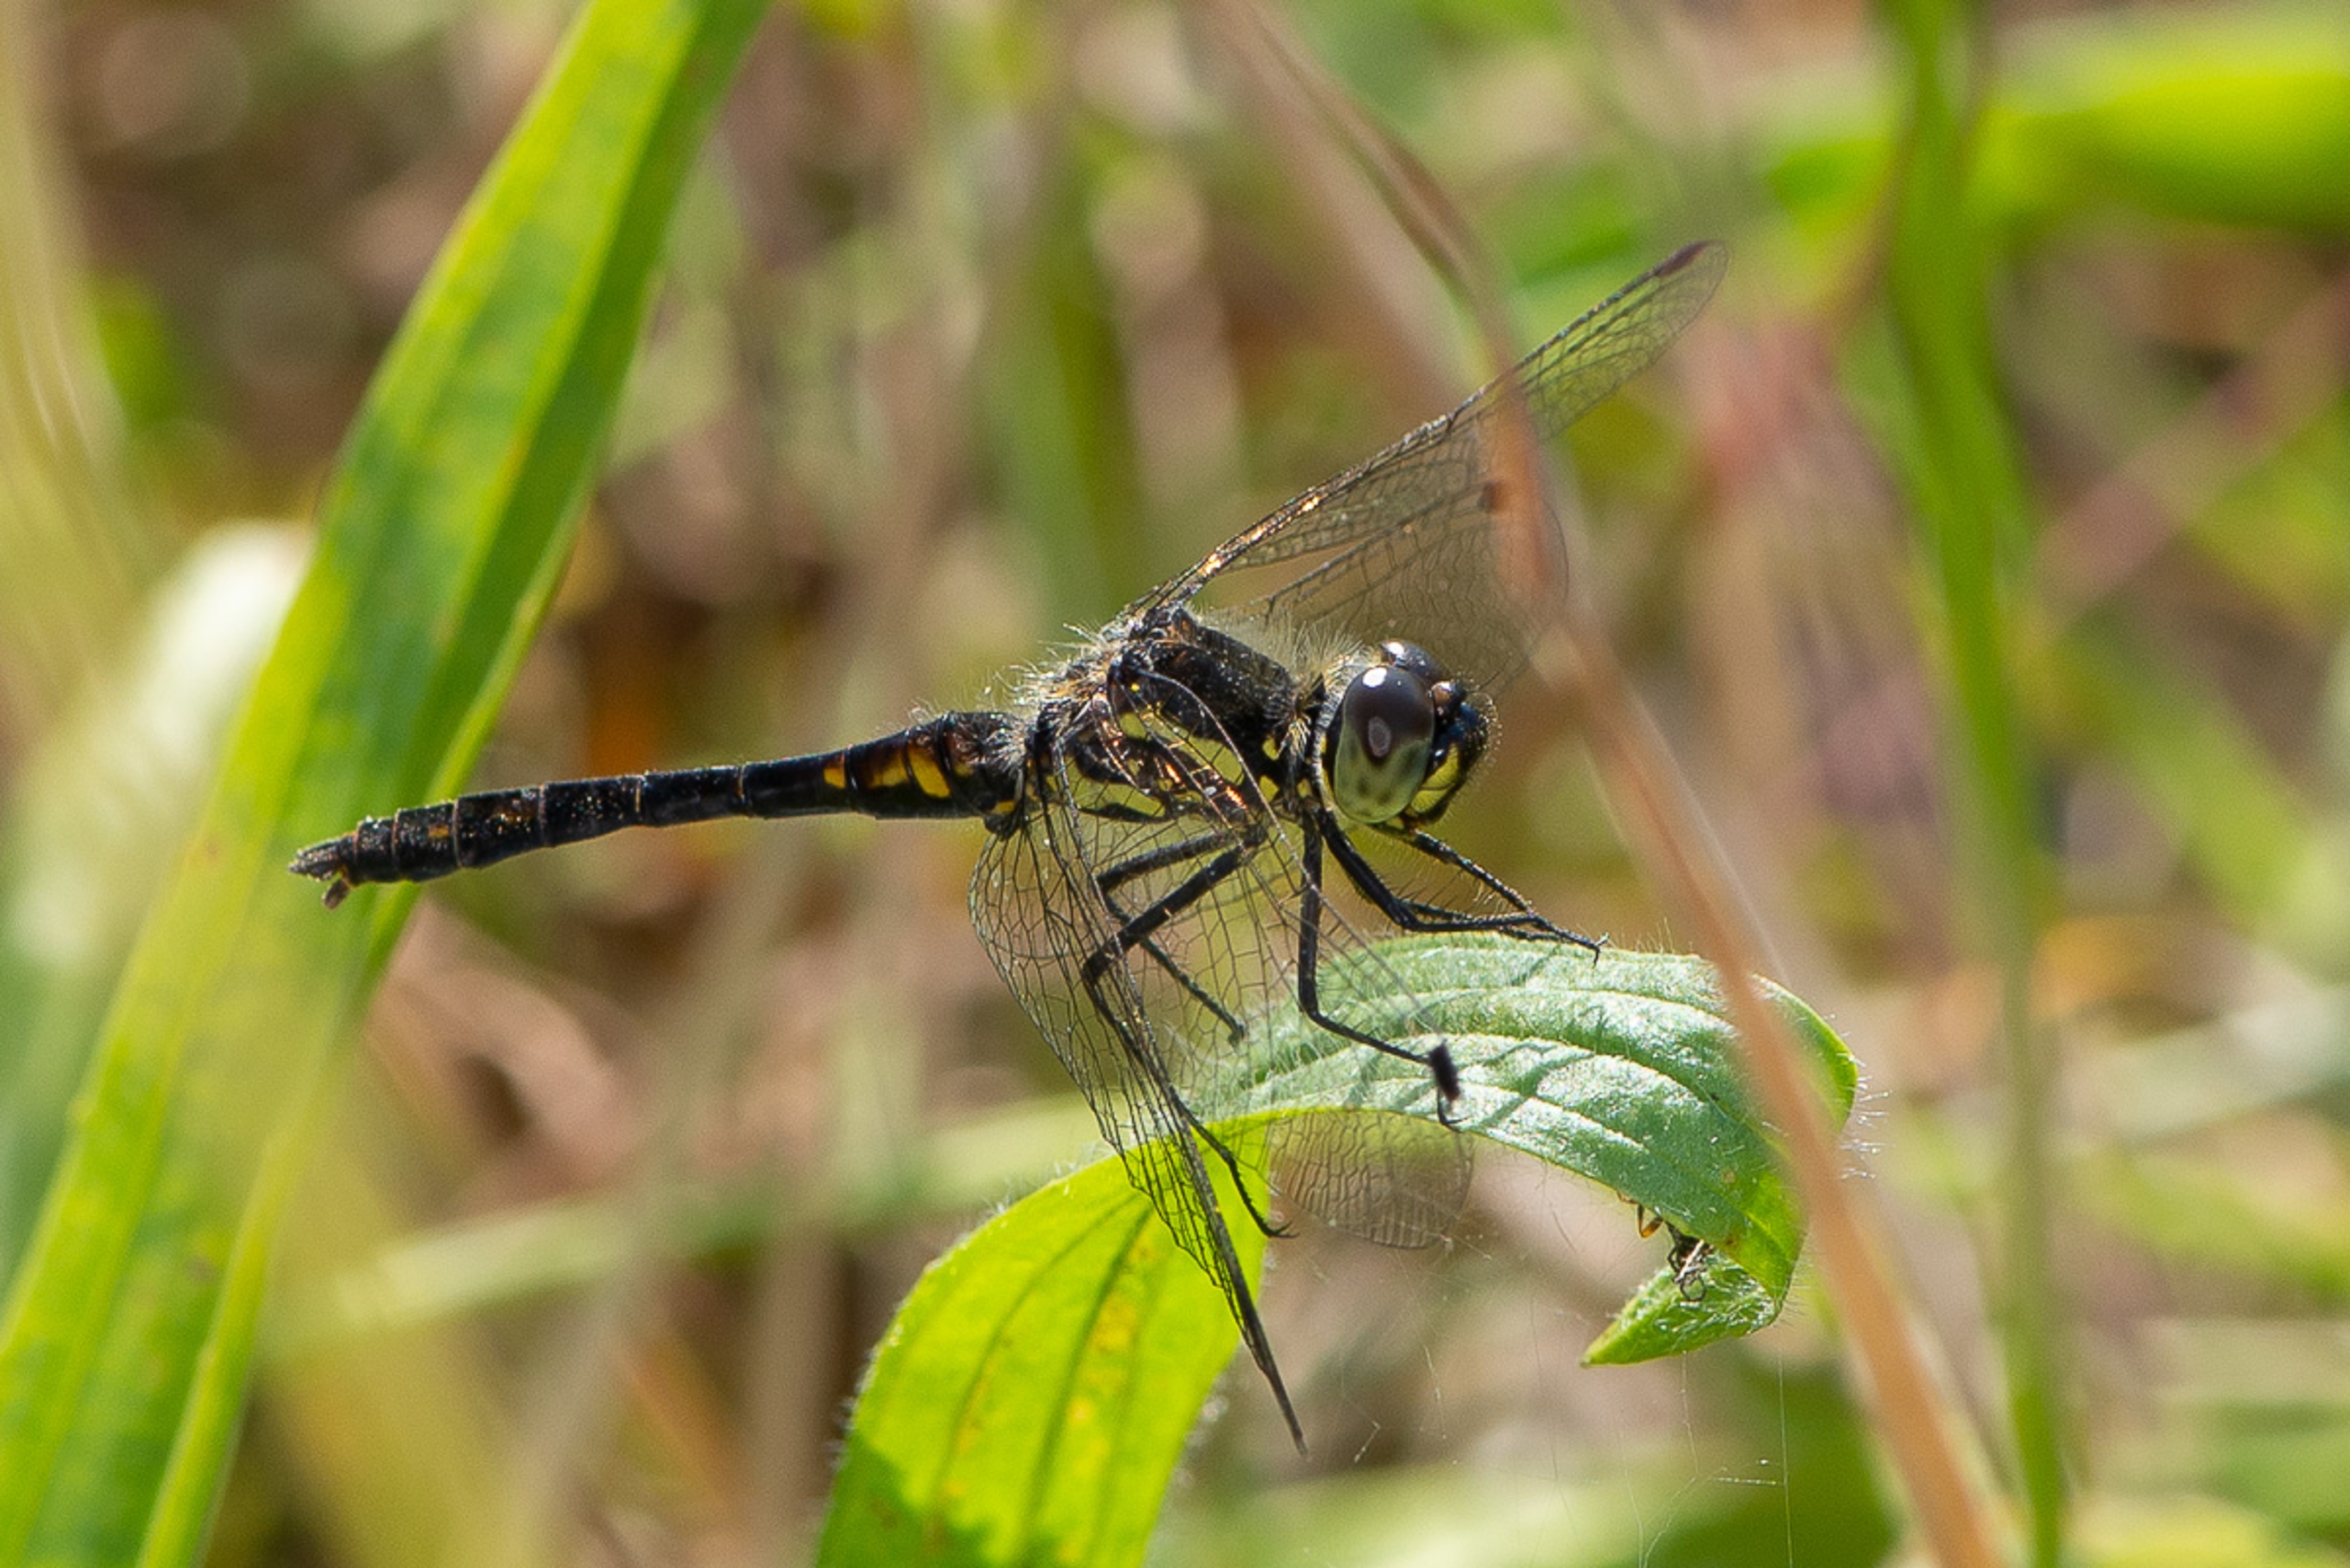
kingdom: Animalia
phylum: Arthropoda
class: Insecta
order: Odonata
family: Libellulidae
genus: Sympetrum
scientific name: Sympetrum danae
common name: Sort hedelibel
